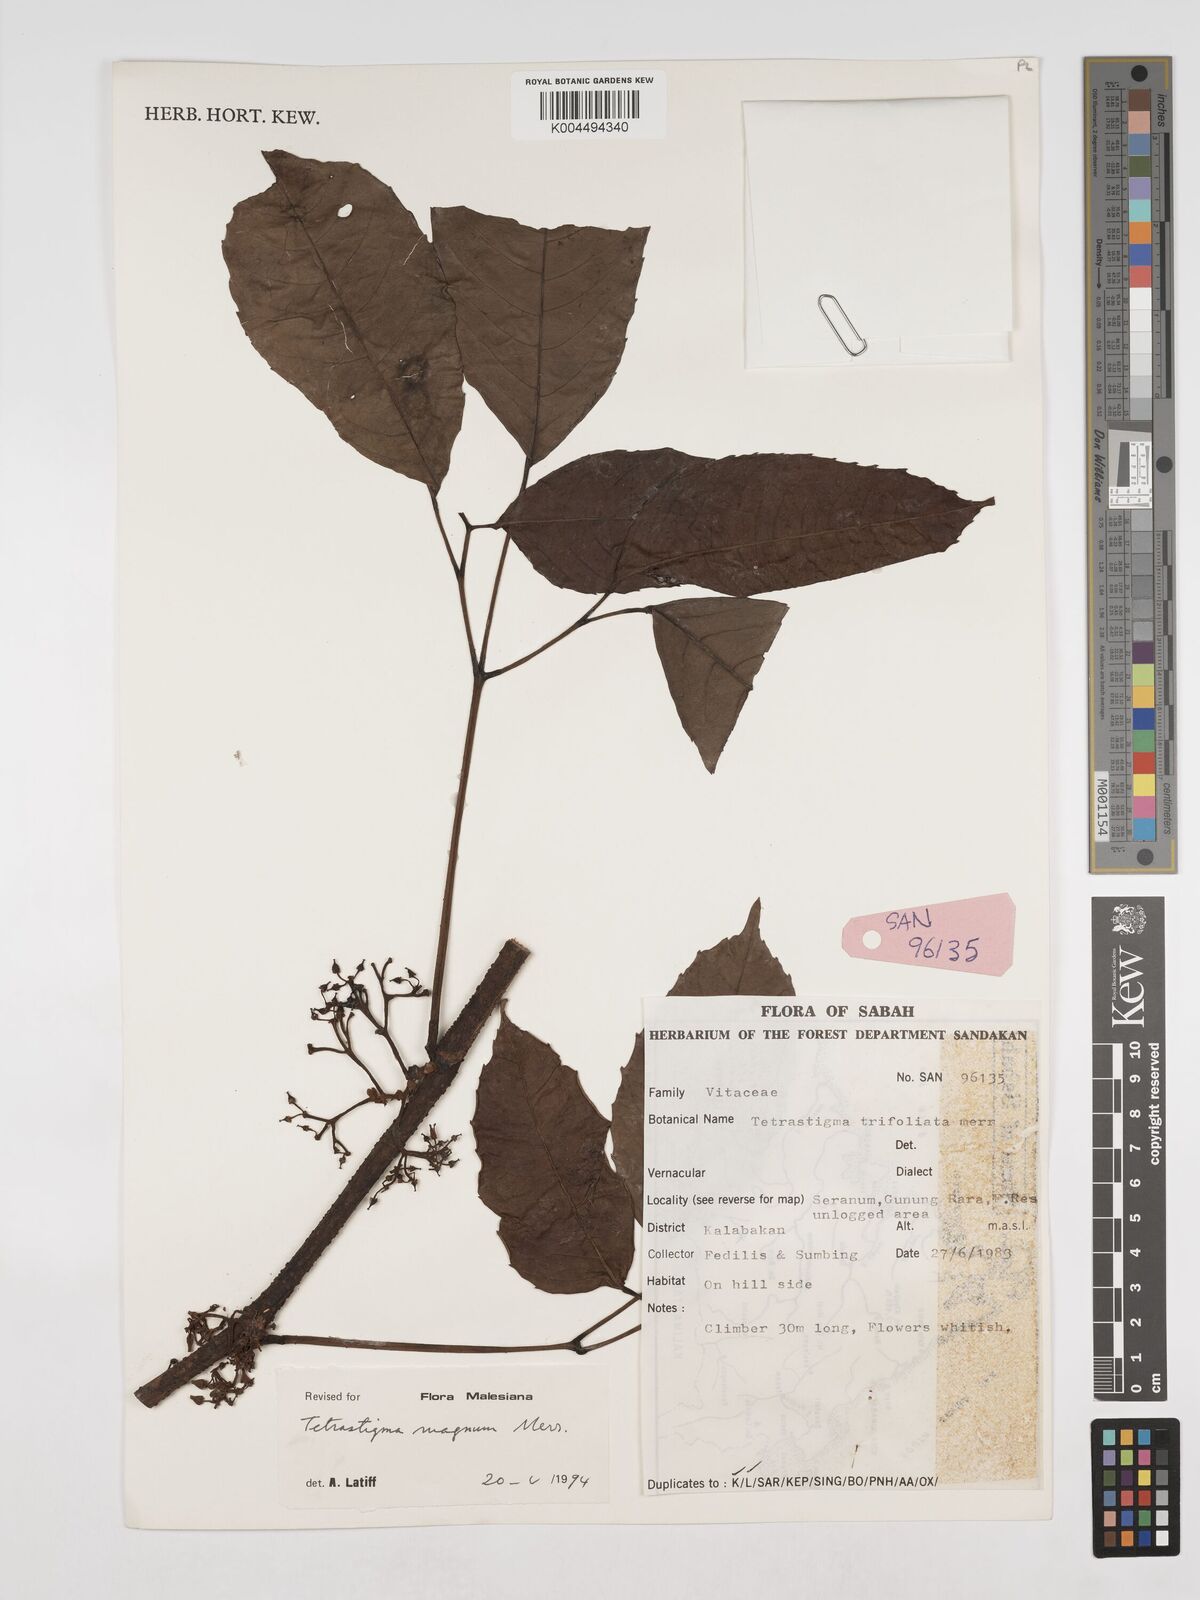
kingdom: Plantae
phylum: Tracheophyta
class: Magnoliopsida
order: Vitales
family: Vitaceae
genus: Tetrastigma
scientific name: Tetrastigma magnum
